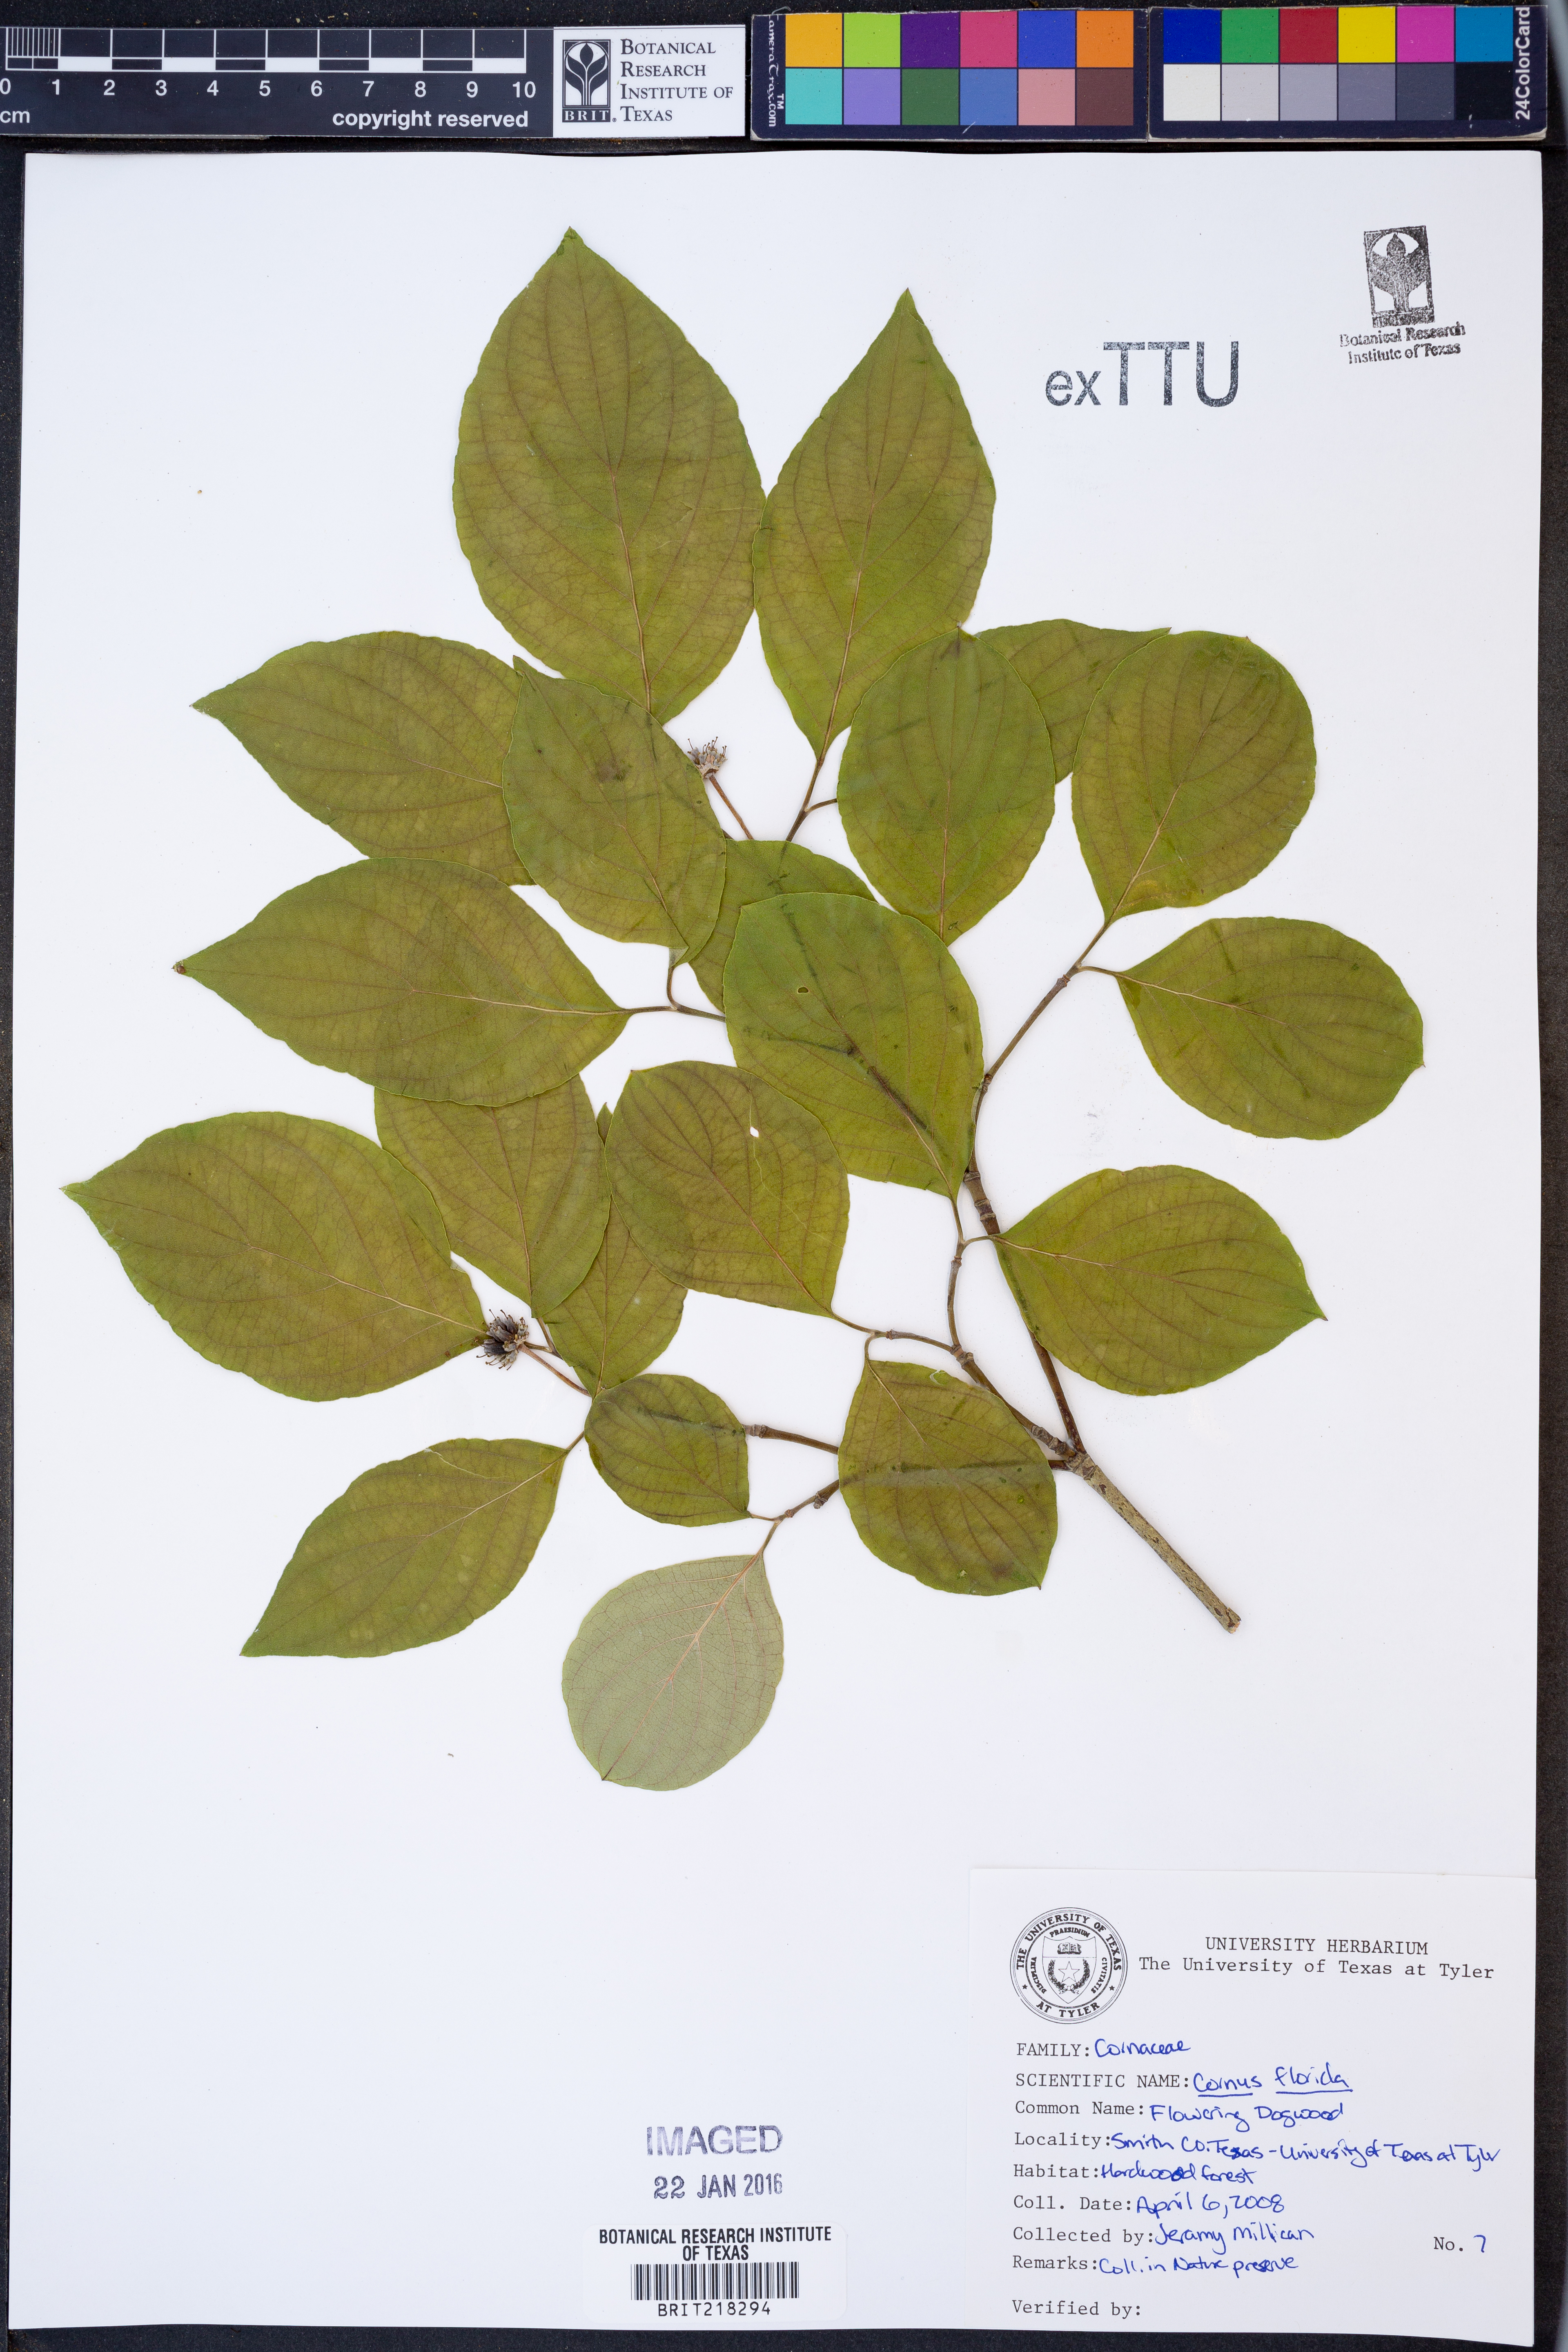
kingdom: Plantae
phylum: Tracheophyta
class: Magnoliopsida
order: Cornales
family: Cornaceae
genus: Cornus
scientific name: Cornus florida
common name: Flowering dogwood
